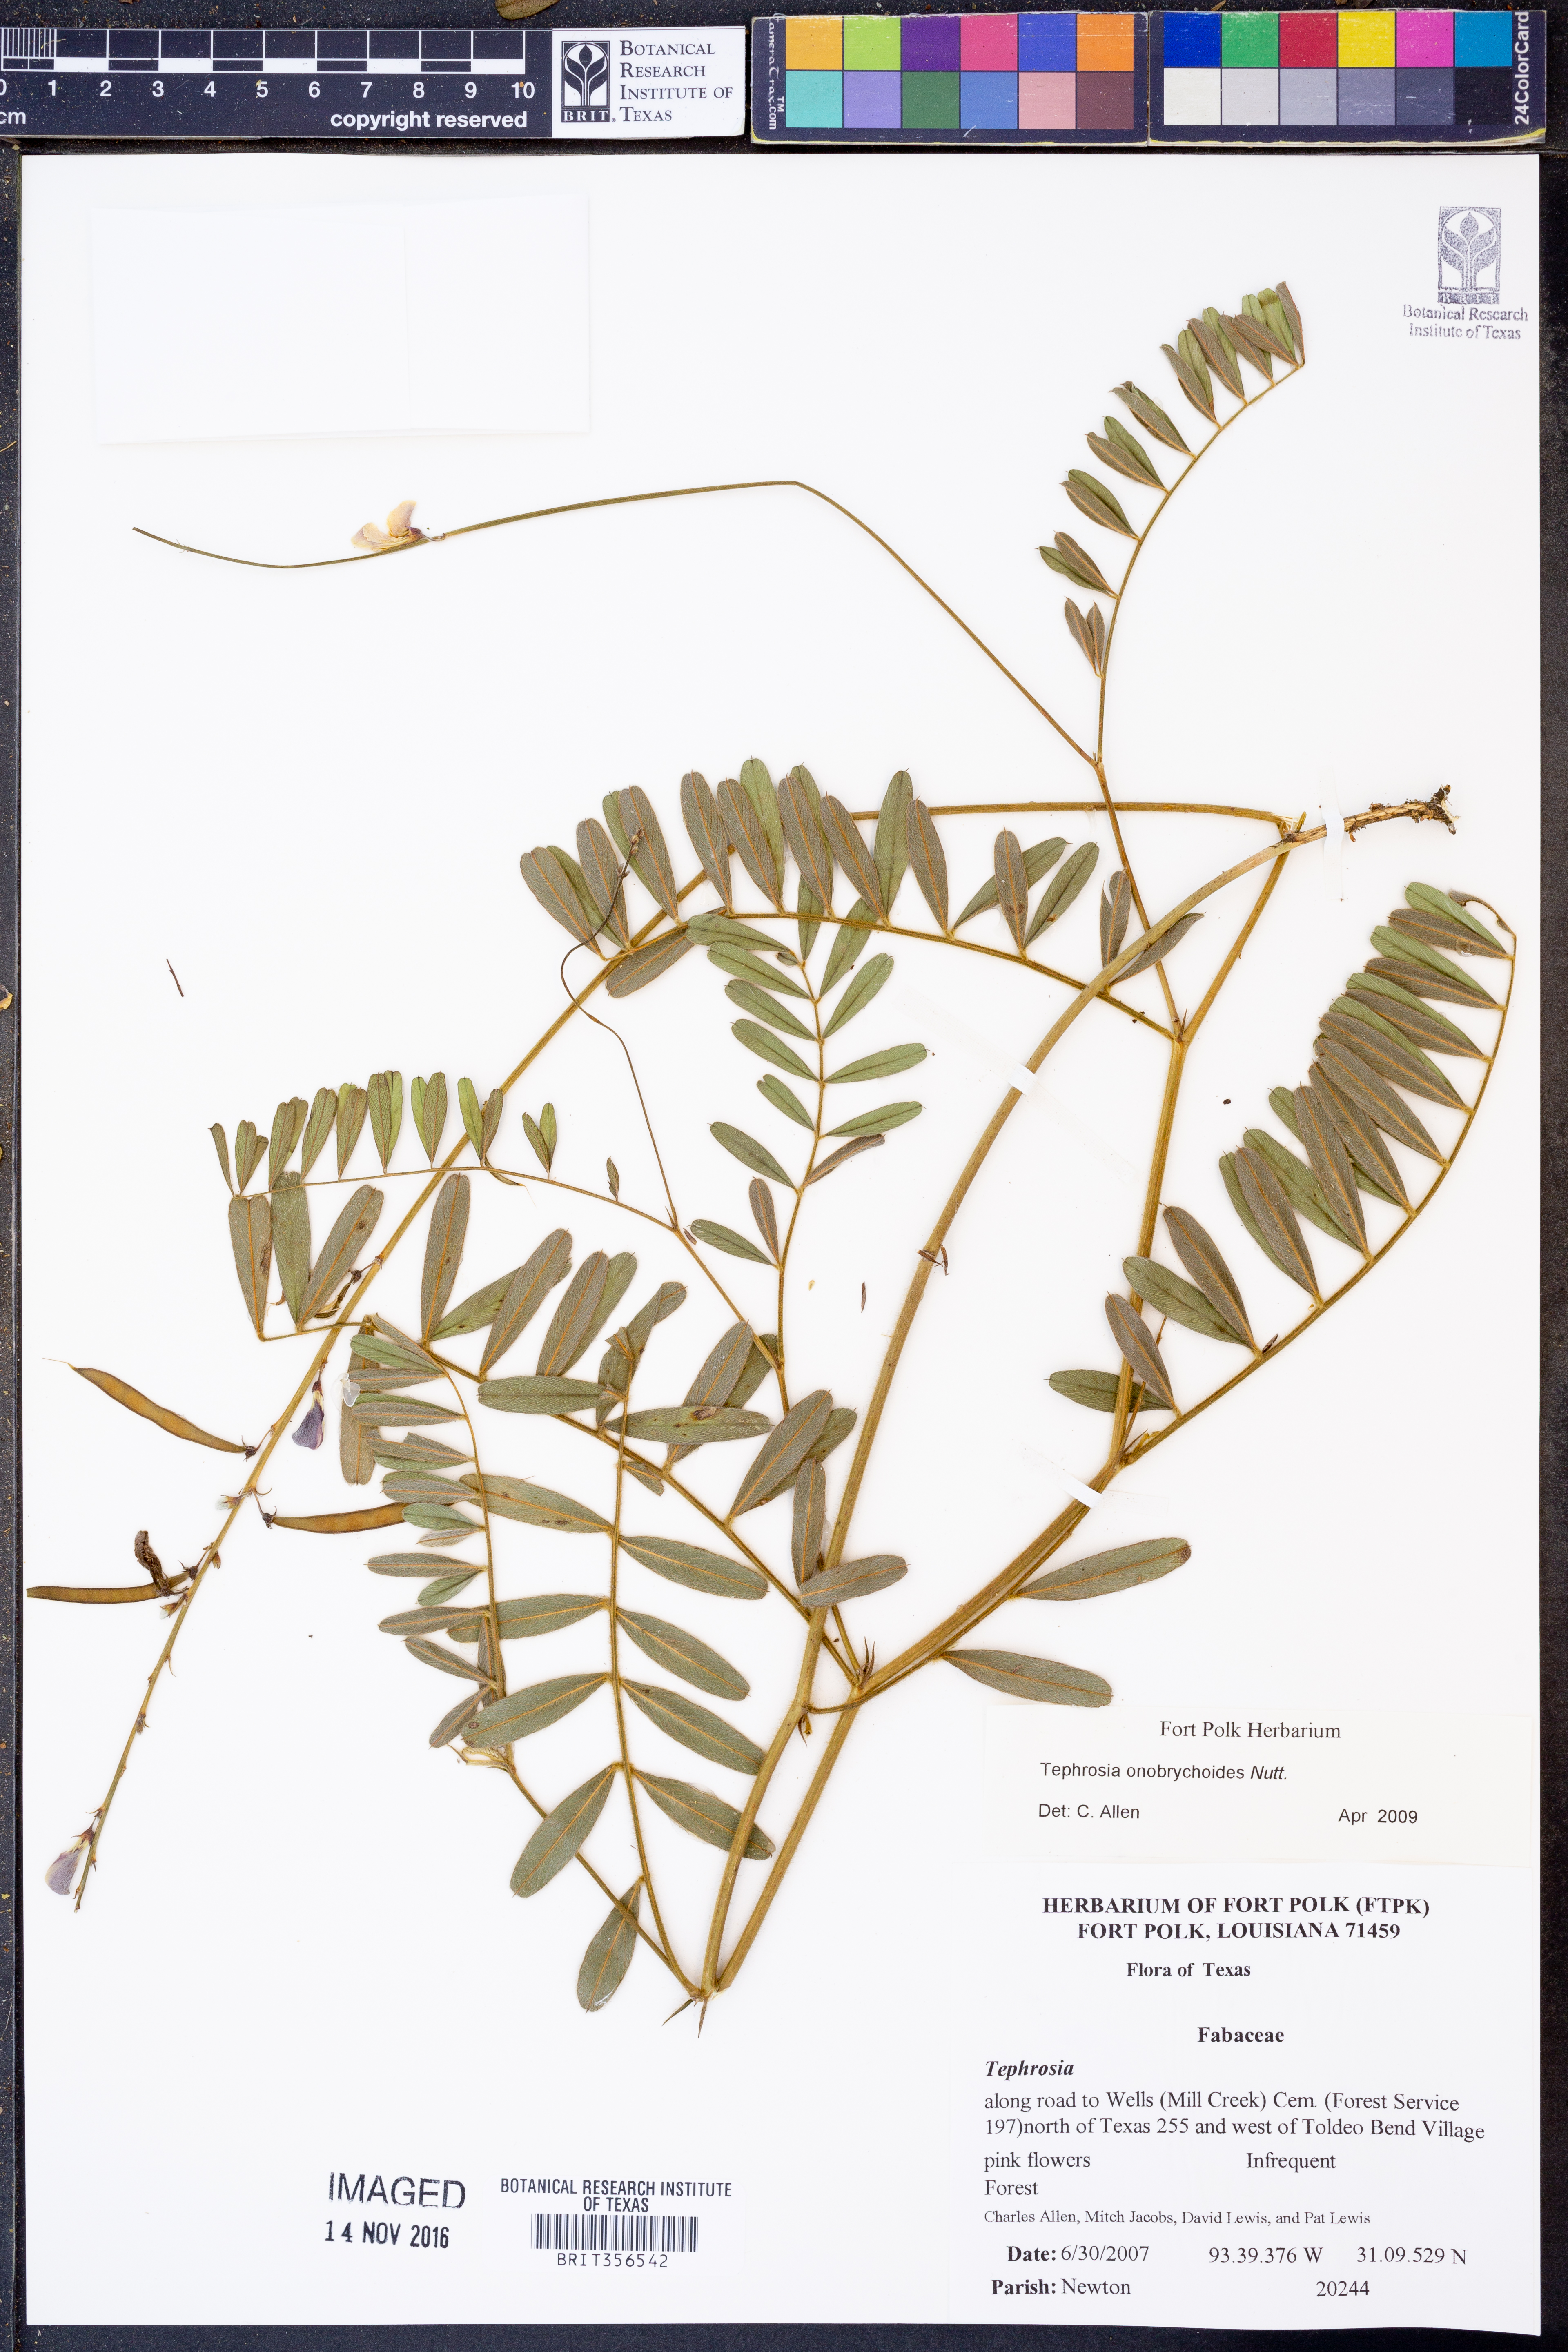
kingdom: Plantae
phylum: Tracheophyta
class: Magnoliopsida
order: Fabales
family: Fabaceae
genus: Tephrosia
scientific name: Tephrosia onobrychoides
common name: Multi-bloom hoary-pea
